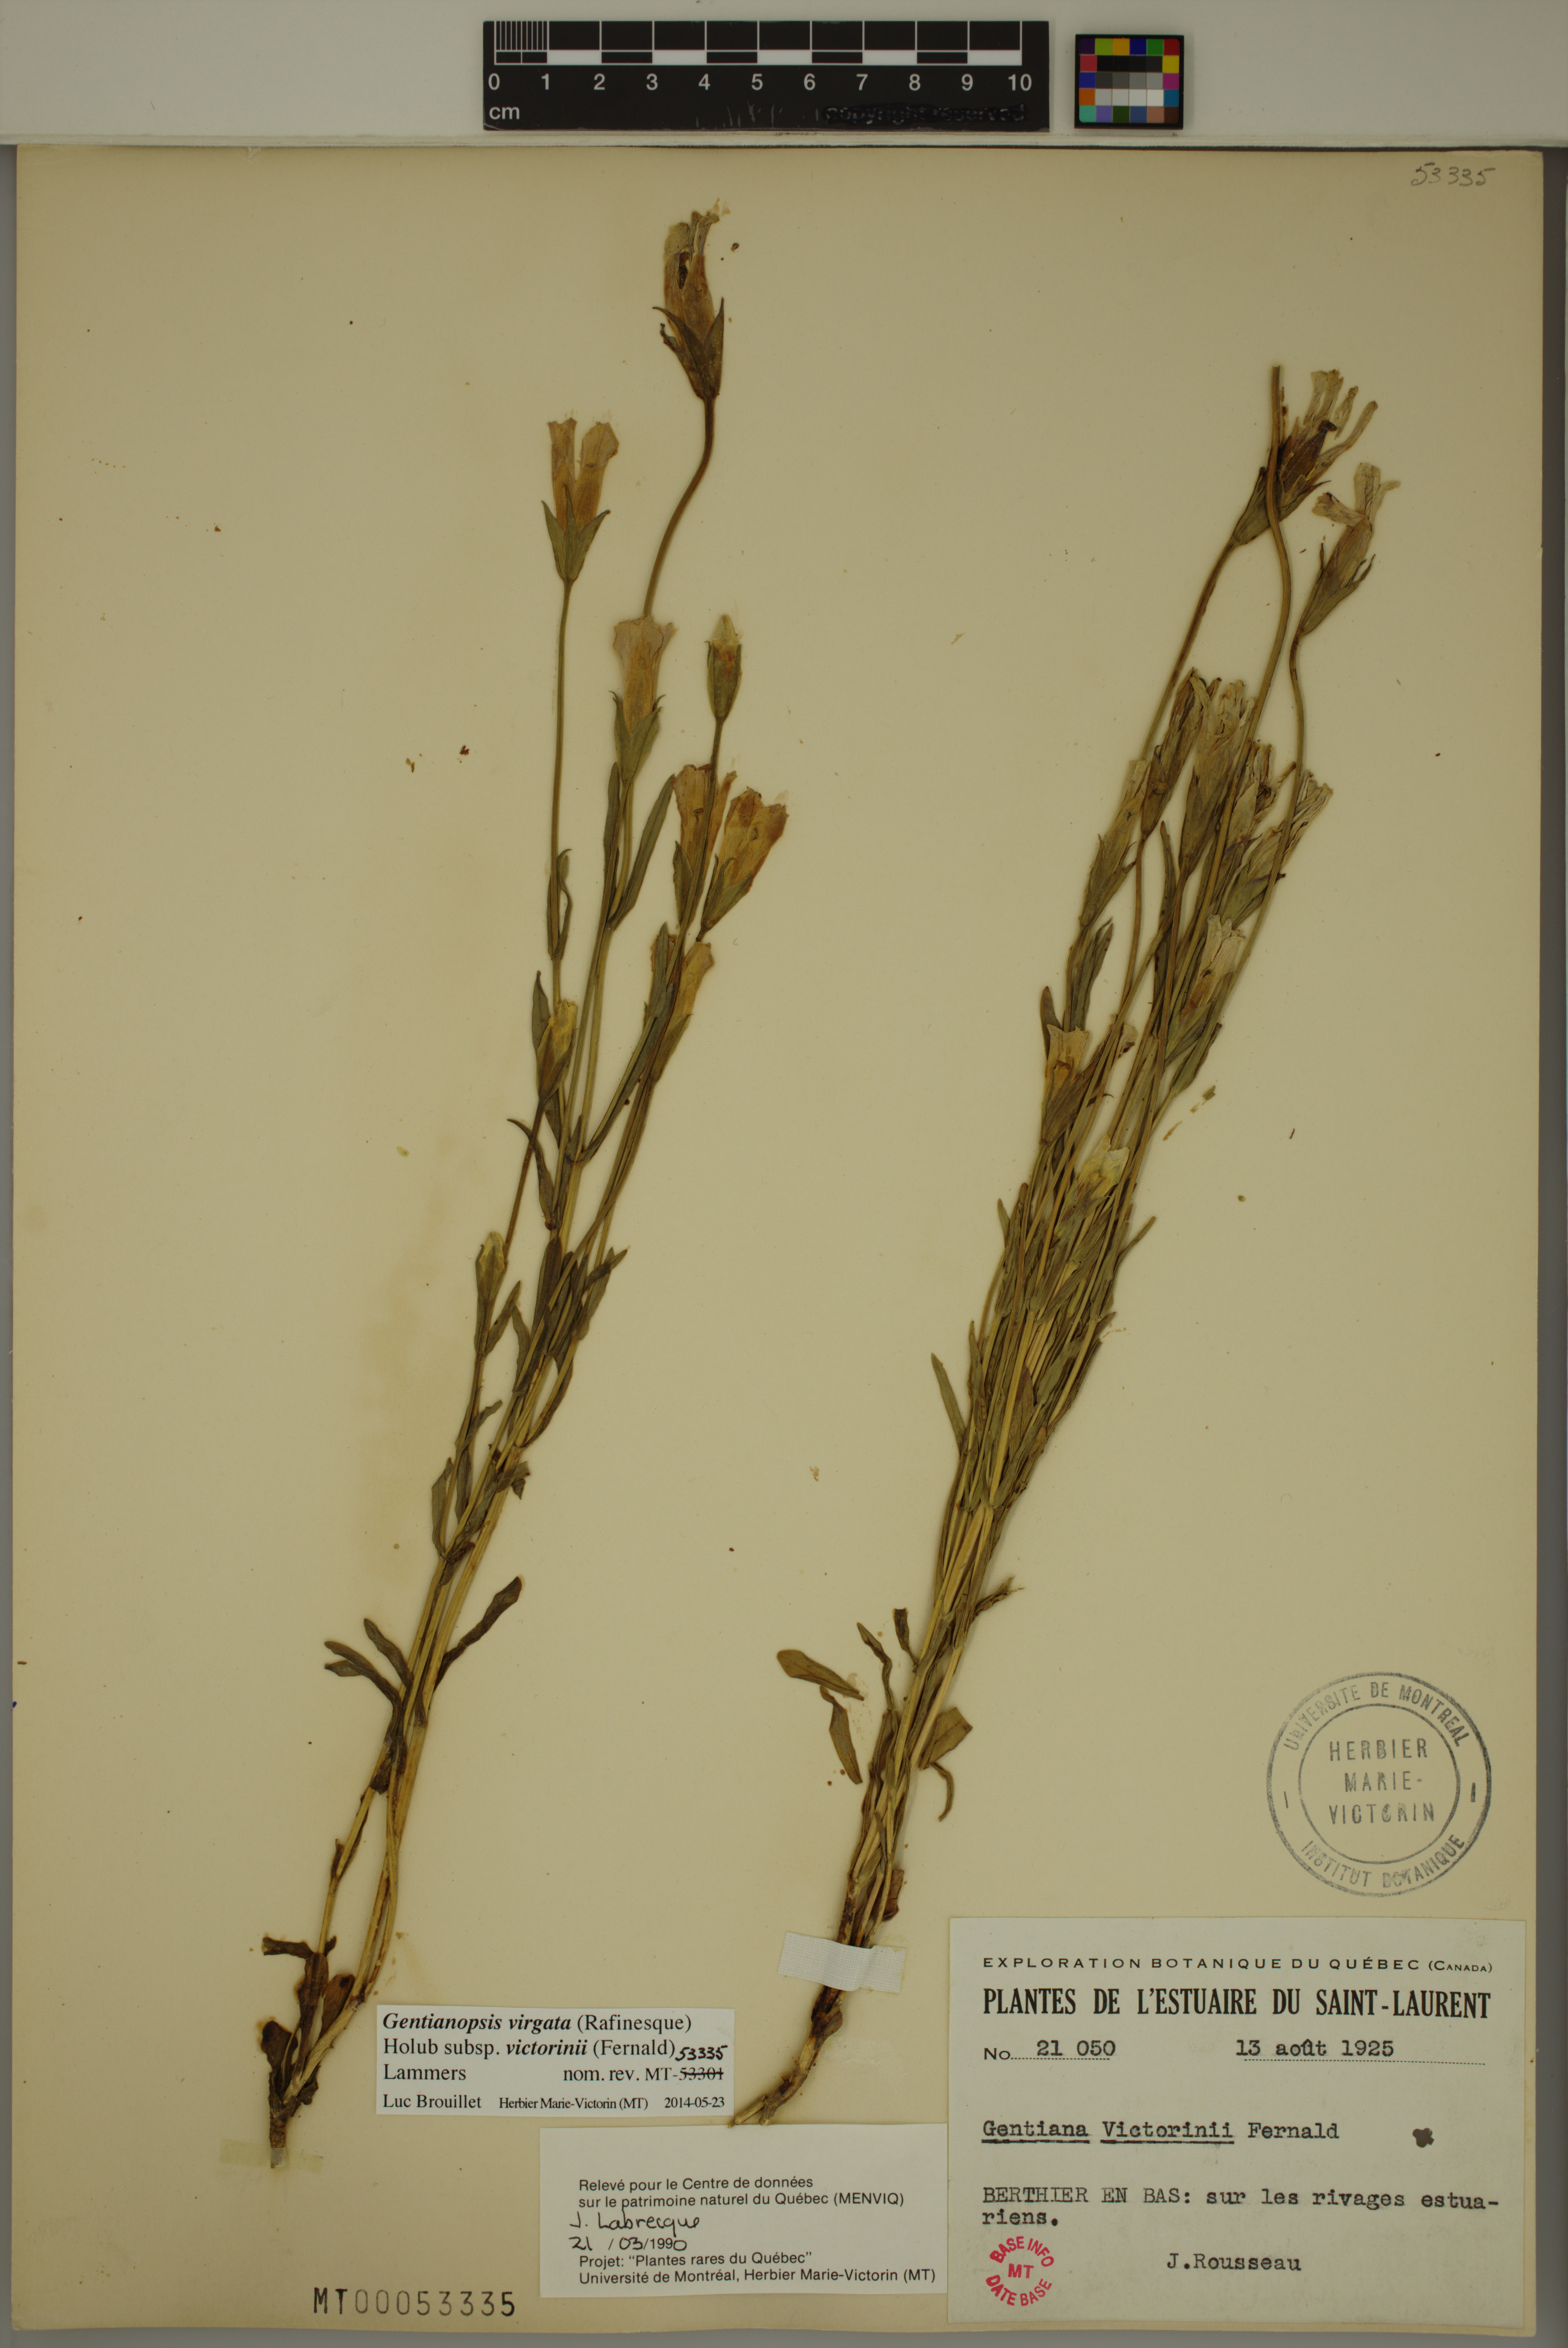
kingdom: Plantae
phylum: Tracheophyta
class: Magnoliopsida
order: Gentianales
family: Gentianaceae
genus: Gentianopsis
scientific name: Gentianopsis victorinii
